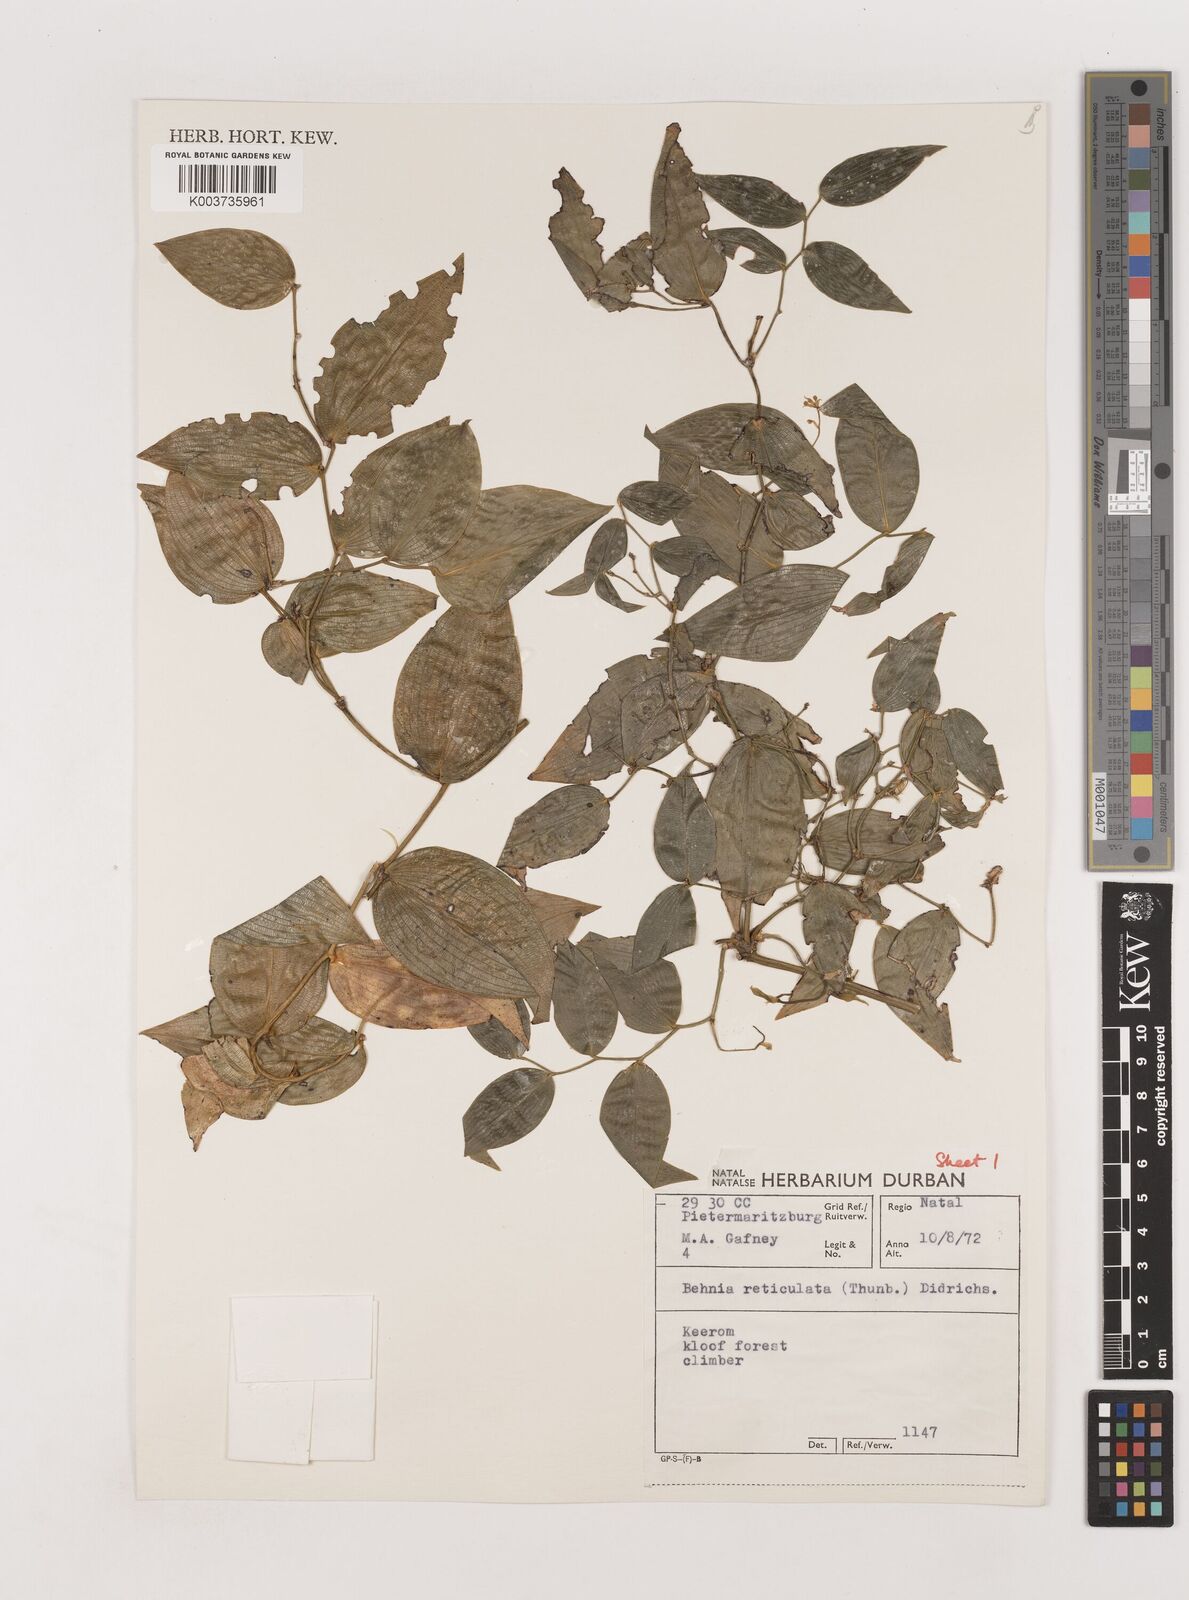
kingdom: Plantae
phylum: Tracheophyta
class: Liliopsida
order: Asparagales
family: Asparagaceae
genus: Behnia
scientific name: Behnia reticulata
